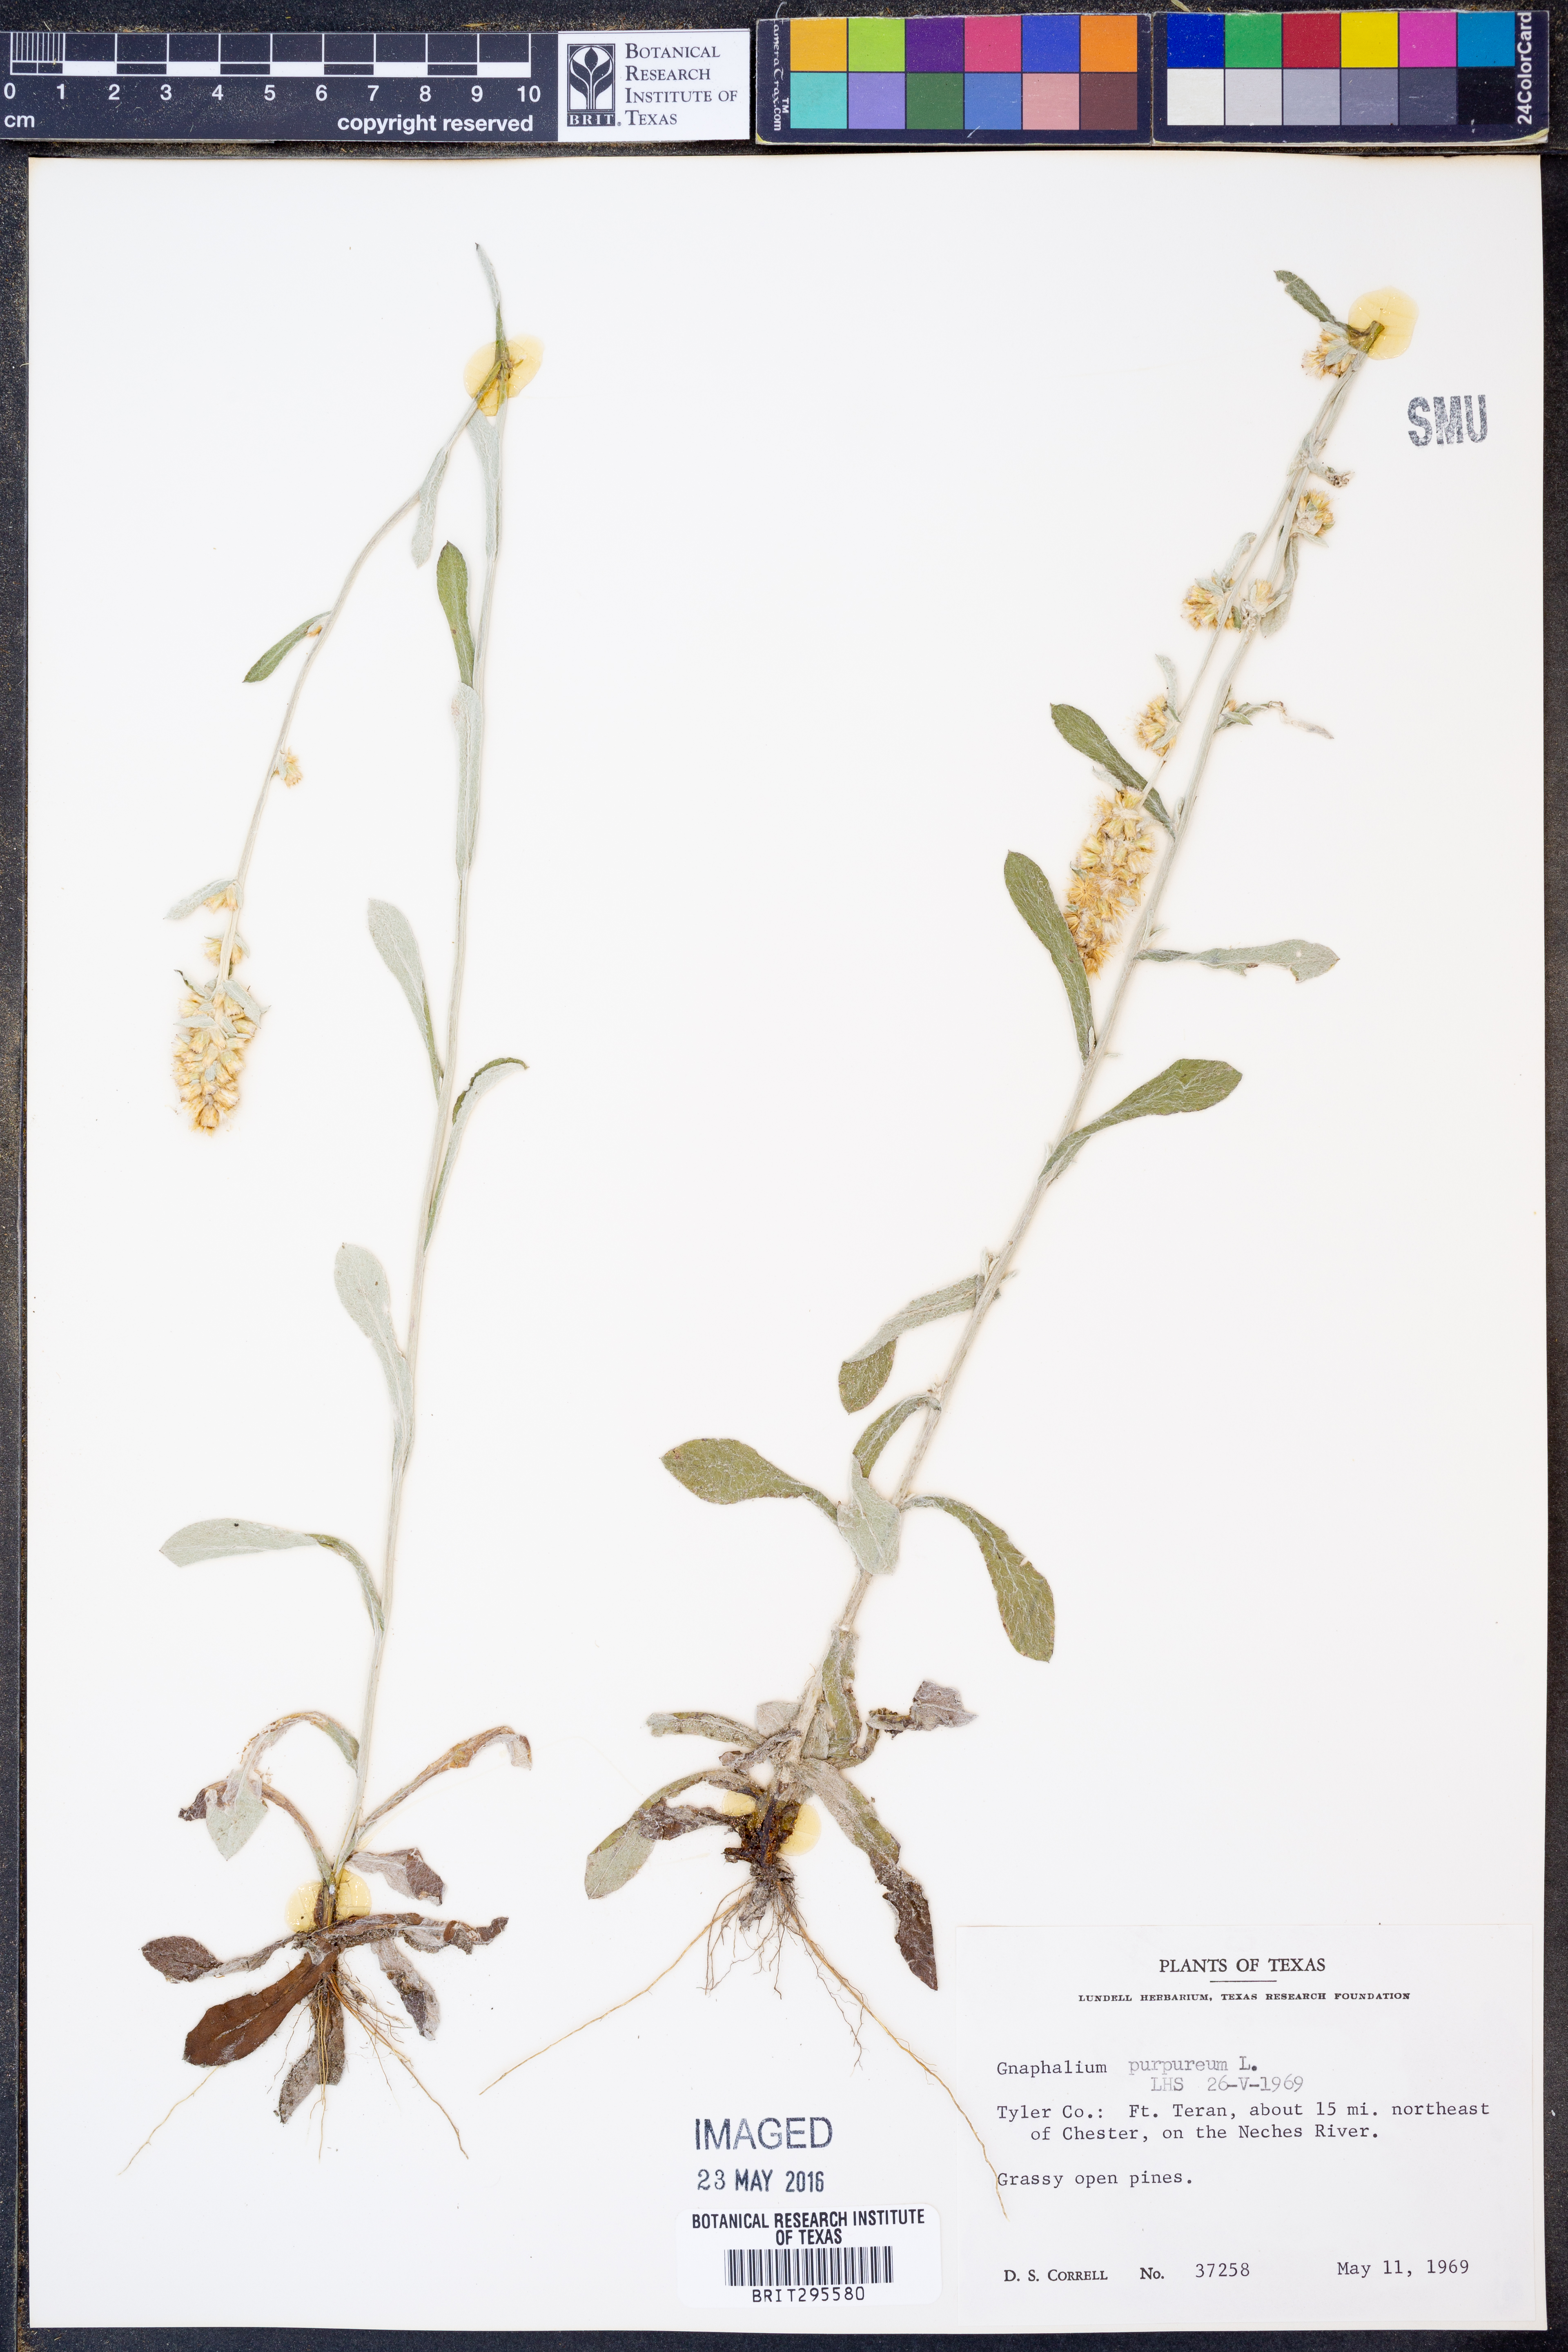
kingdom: Plantae
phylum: Tracheophyta
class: Magnoliopsida
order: Asterales
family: Asteraceae
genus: Gamochaeta
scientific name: Gamochaeta purpurea
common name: Purple cudweed
